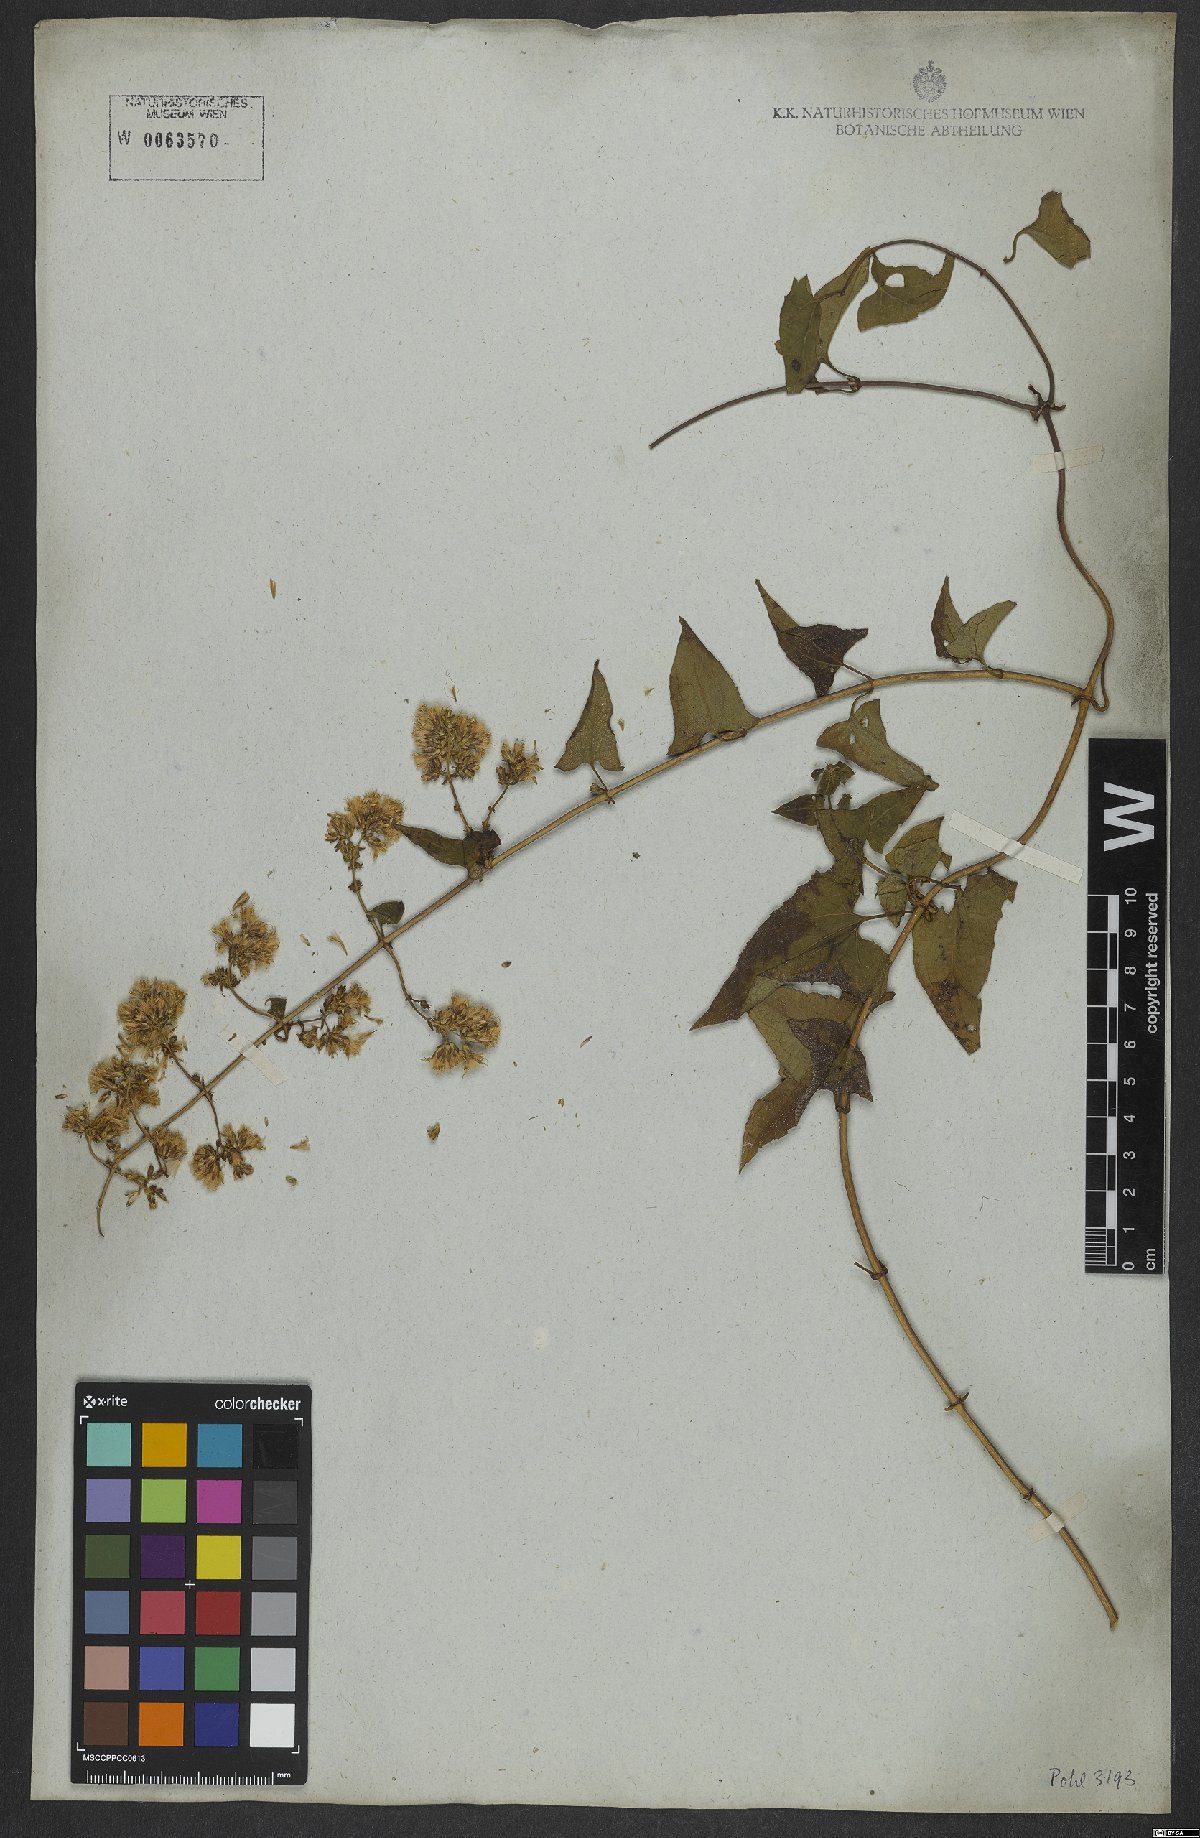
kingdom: Plantae
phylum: Tracheophyta
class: Magnoliopsida
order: Asterales
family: Asteraceae
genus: Mikania
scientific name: Mikania salviifolia
